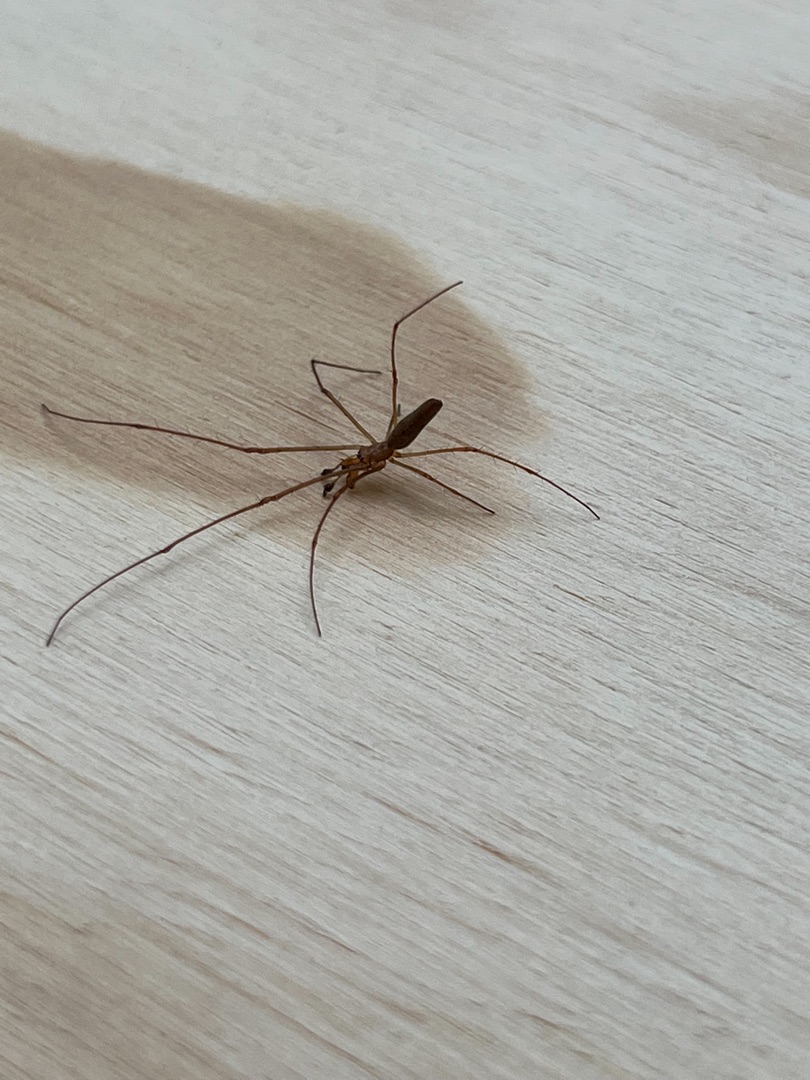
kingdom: Animalia
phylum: Arthropoda
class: Arachnida
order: Araneae
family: Tetragnathidae
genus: Tetragnatha
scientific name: Tetragnatha
